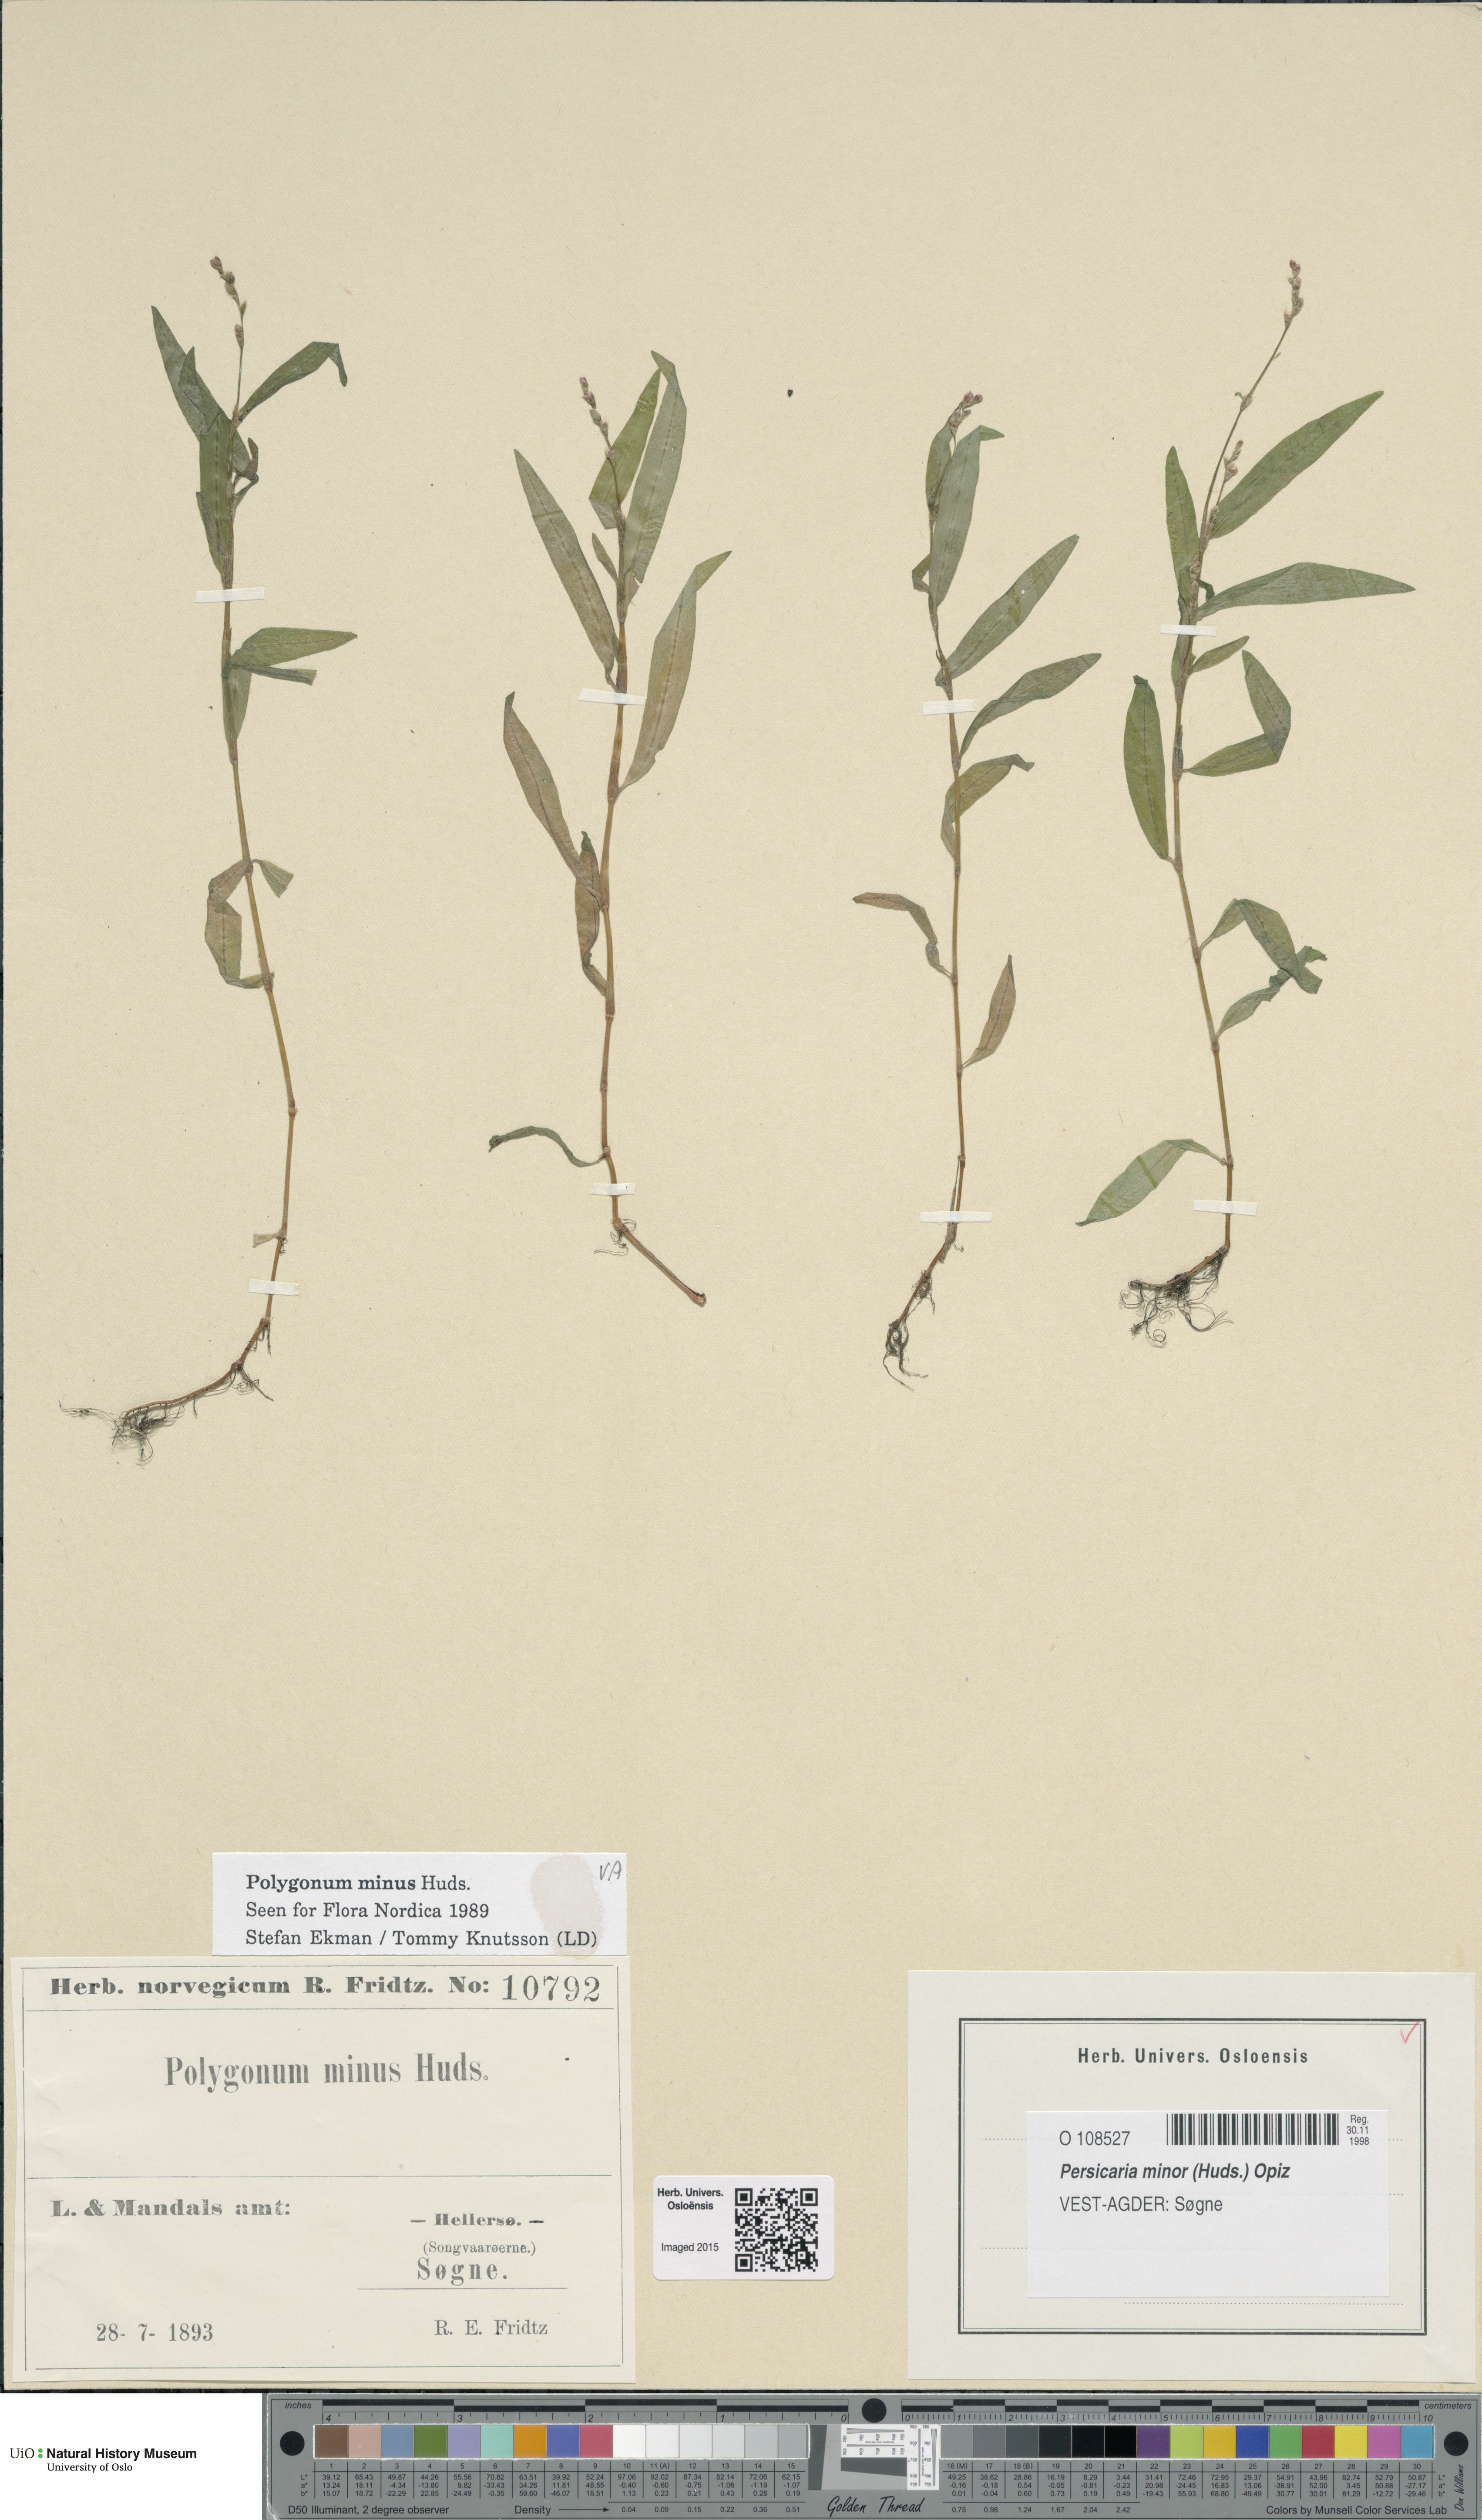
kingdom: Plantae
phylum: Tracheophyta
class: Magnoliopsida
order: Caryophyllales
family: Polygonaceae
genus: Persicaria
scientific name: Persicaria minor
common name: Small water-pepper
